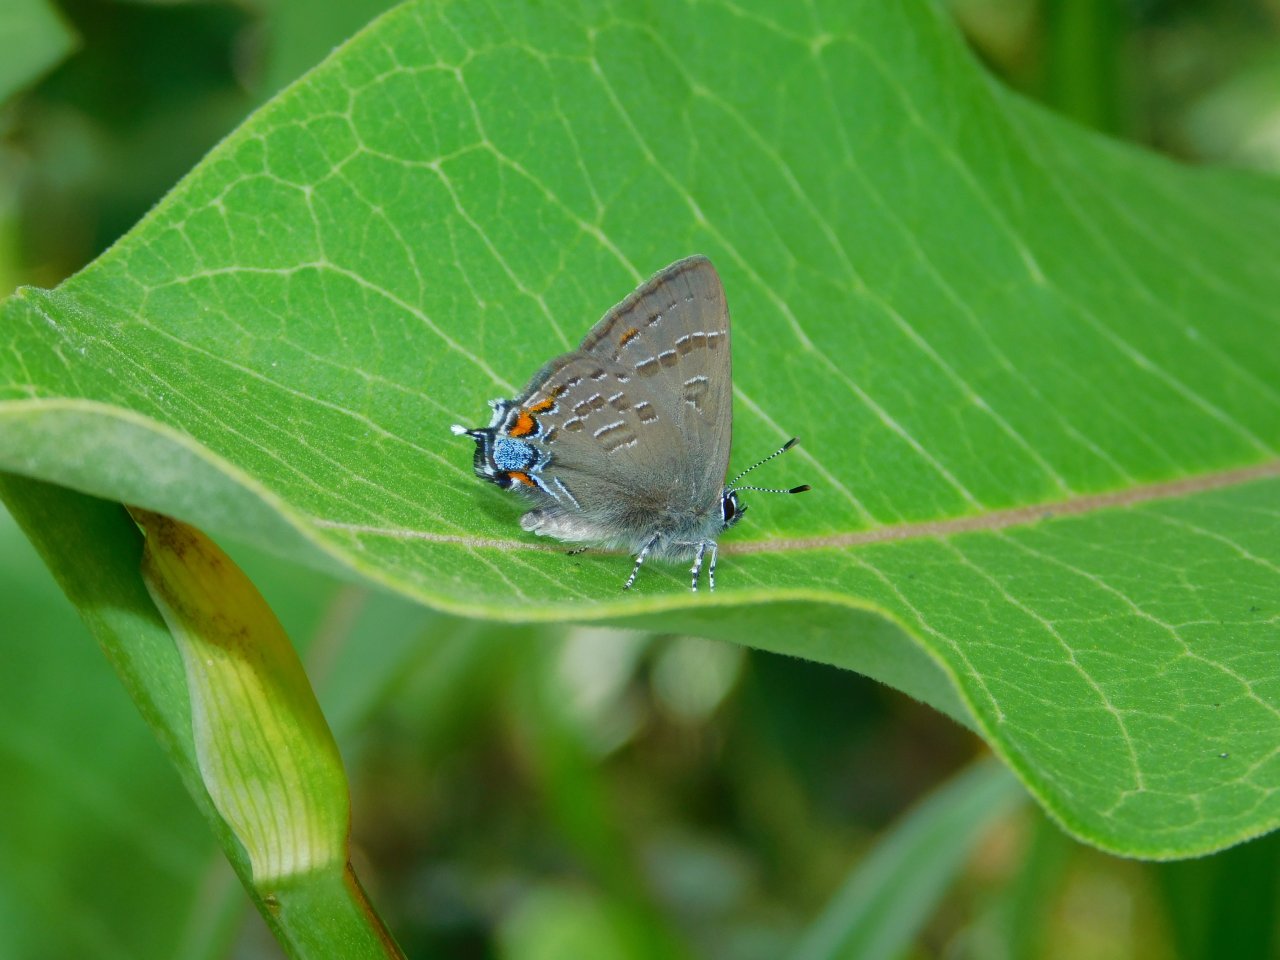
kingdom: Animalia
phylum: Arthropoda
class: Insecta
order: Lepidoptera
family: Lycaenidae
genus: Satyrium
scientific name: Satyrium calanus
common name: Banded Hairstreak
